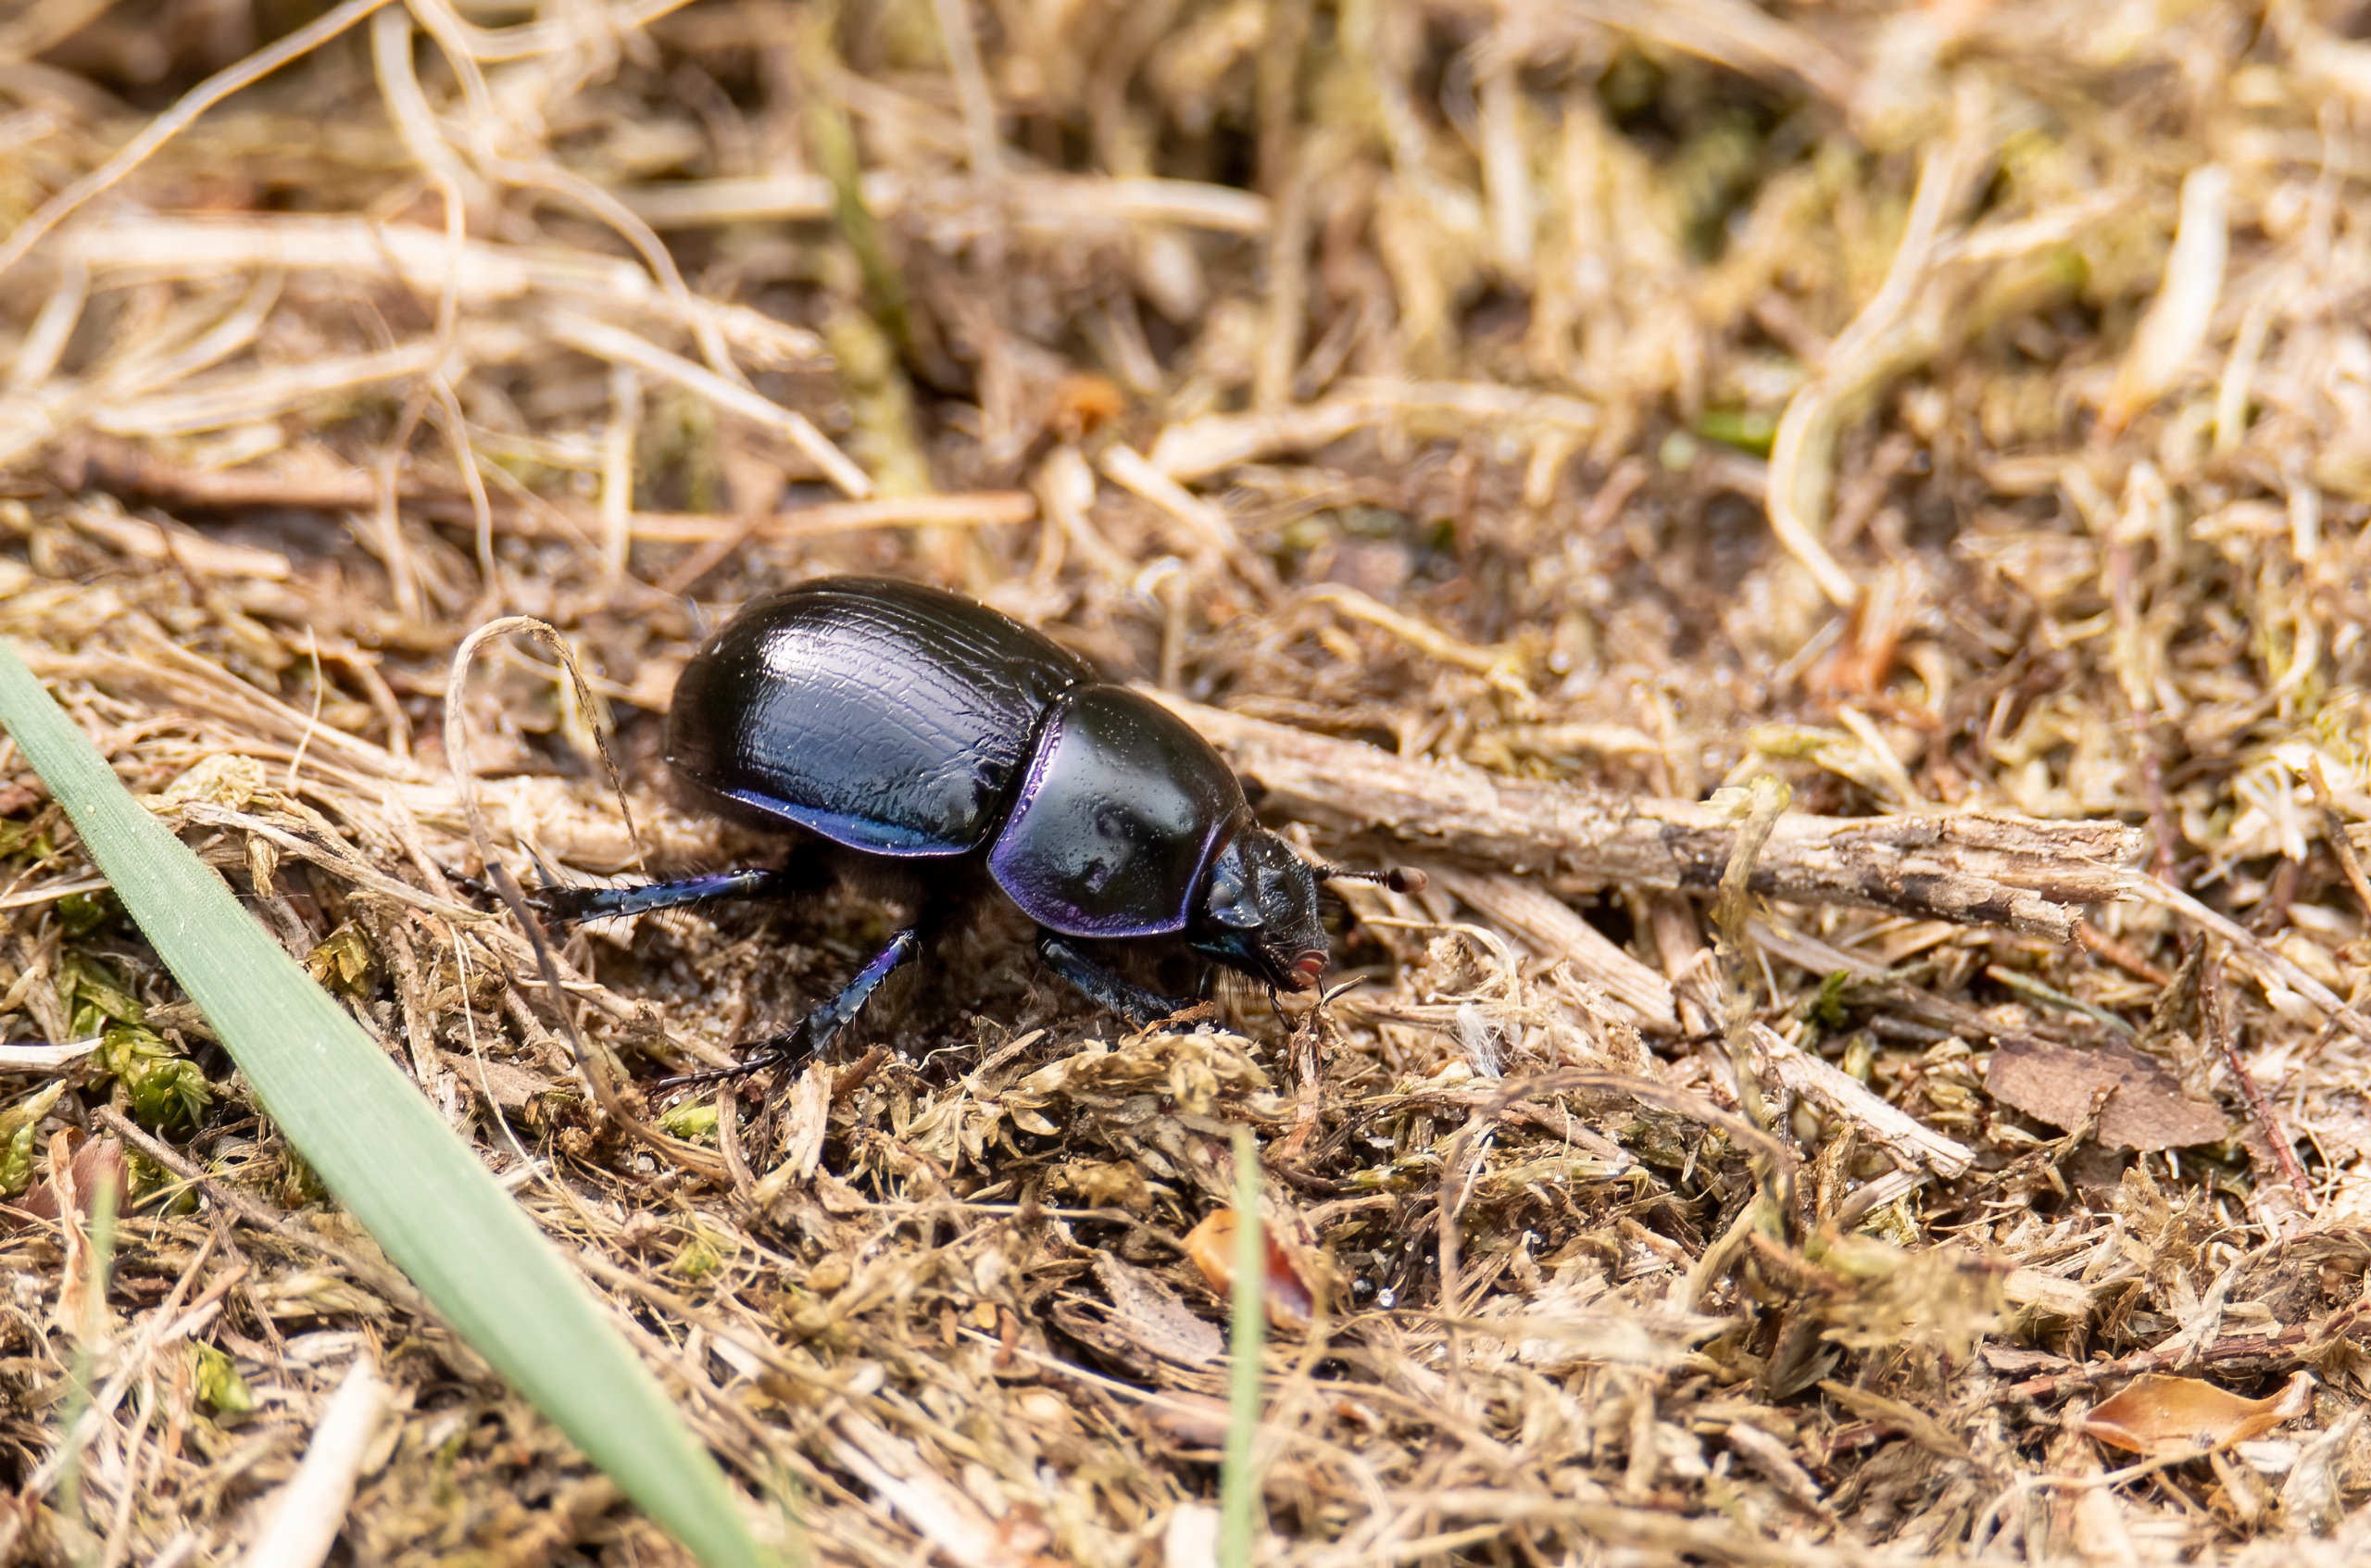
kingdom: Animalia
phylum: Arthropoda
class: Insecta
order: Coleoptera
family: Geotrupidae
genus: Anoplotrupes
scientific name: Anoplotrupes stercorosus
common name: Skovskarnbasse
